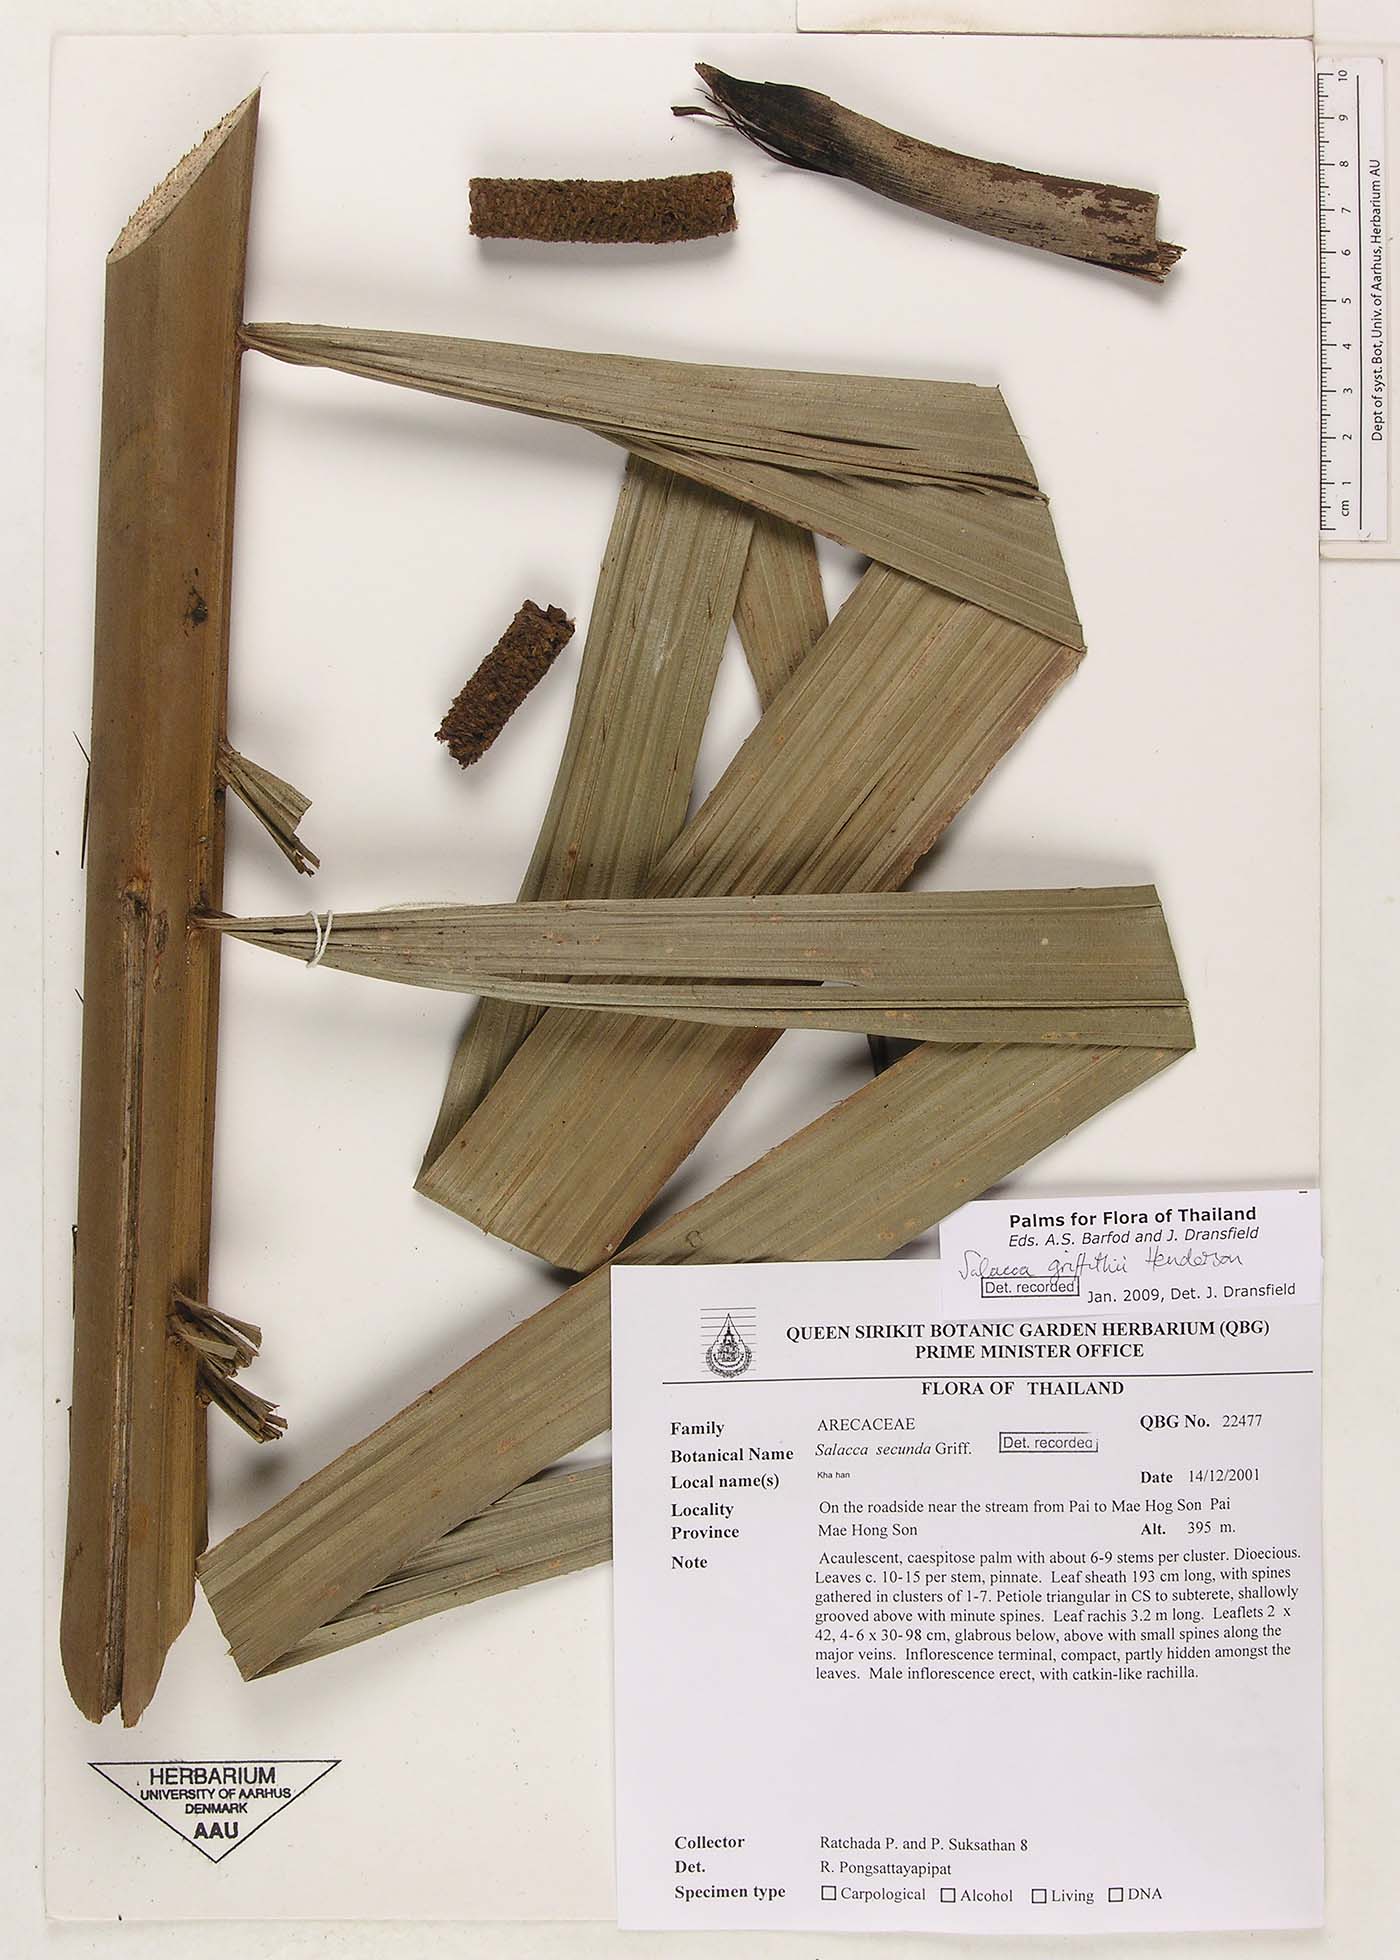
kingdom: Plantae
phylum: Tracheophyta
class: Liliopsida
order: Arecales
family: Arecaceae
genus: Salacca
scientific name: Salacca griffithii
